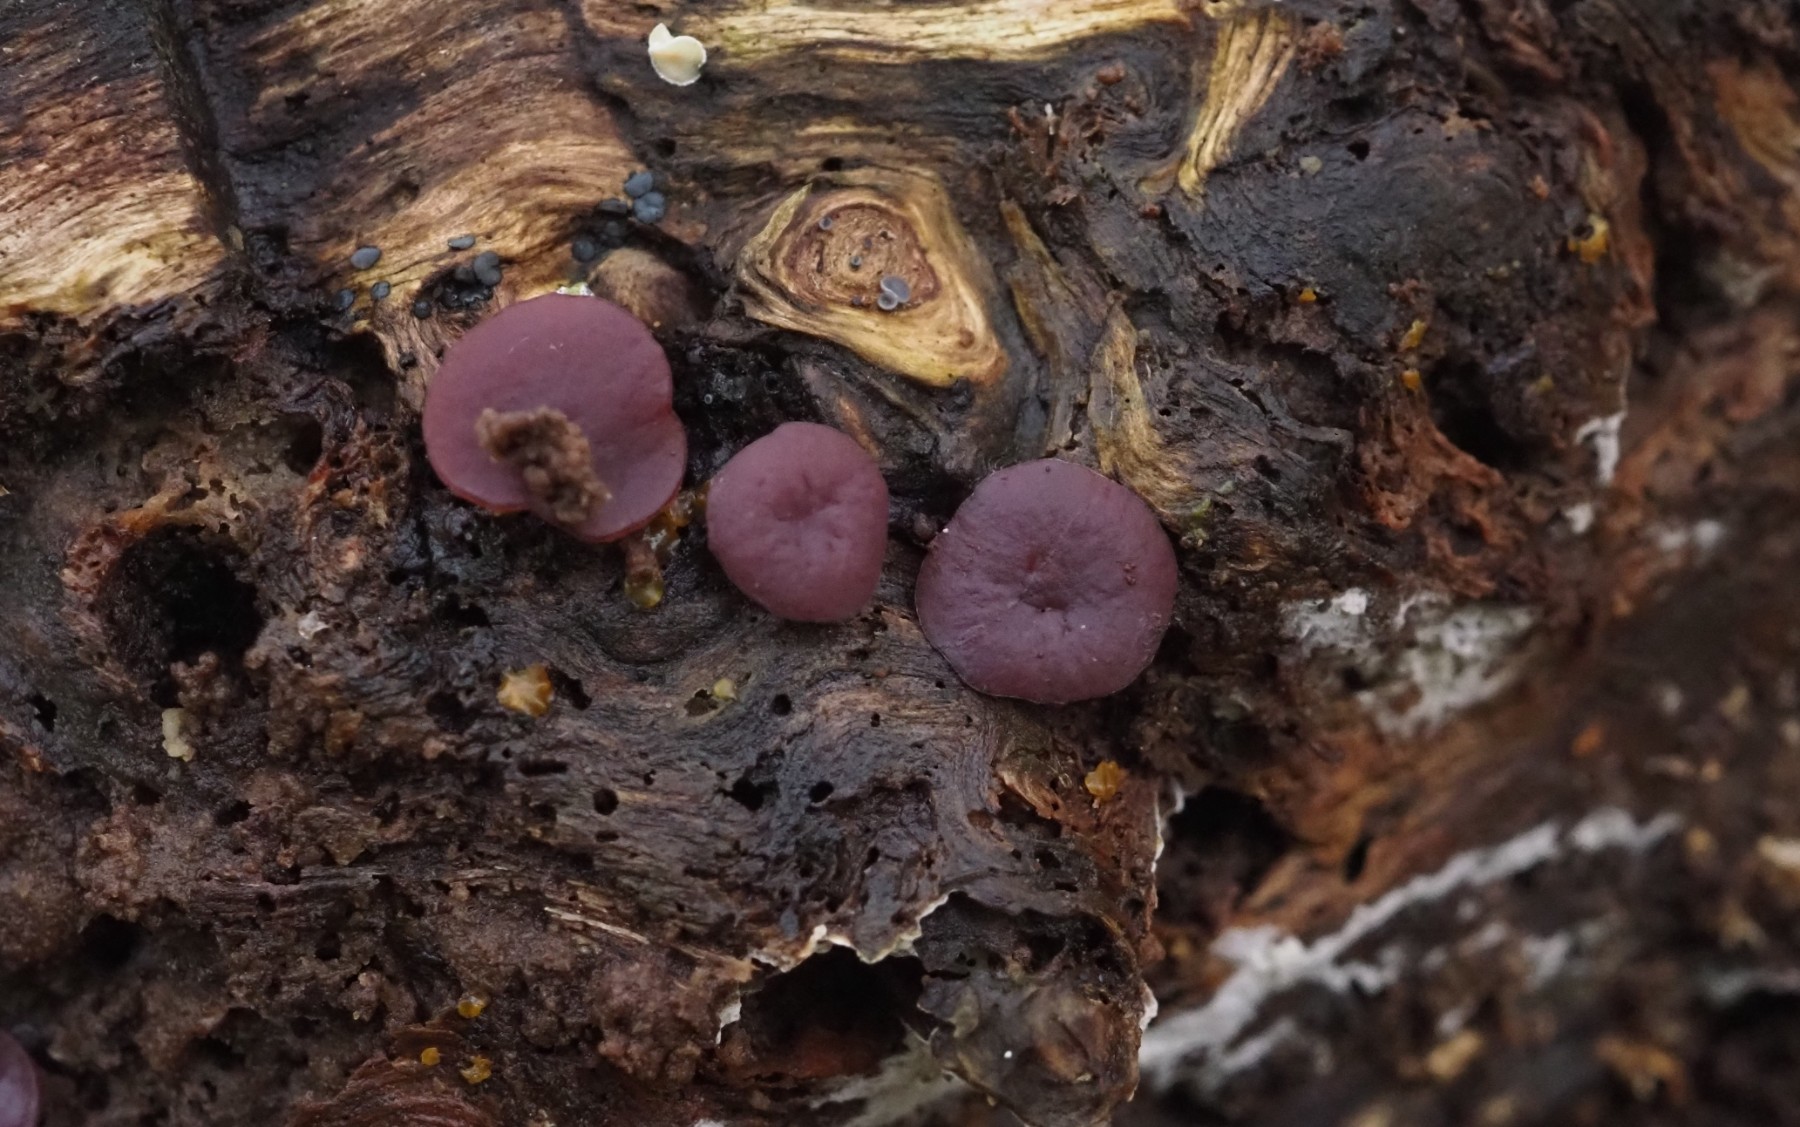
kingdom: Fungi
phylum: Ascomycota
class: Leotiomycetes
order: Helotiales
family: Gelatinodiscaceae
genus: Ascocoryne
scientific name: Ascocoryne cylichnium
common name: stor sejskive
